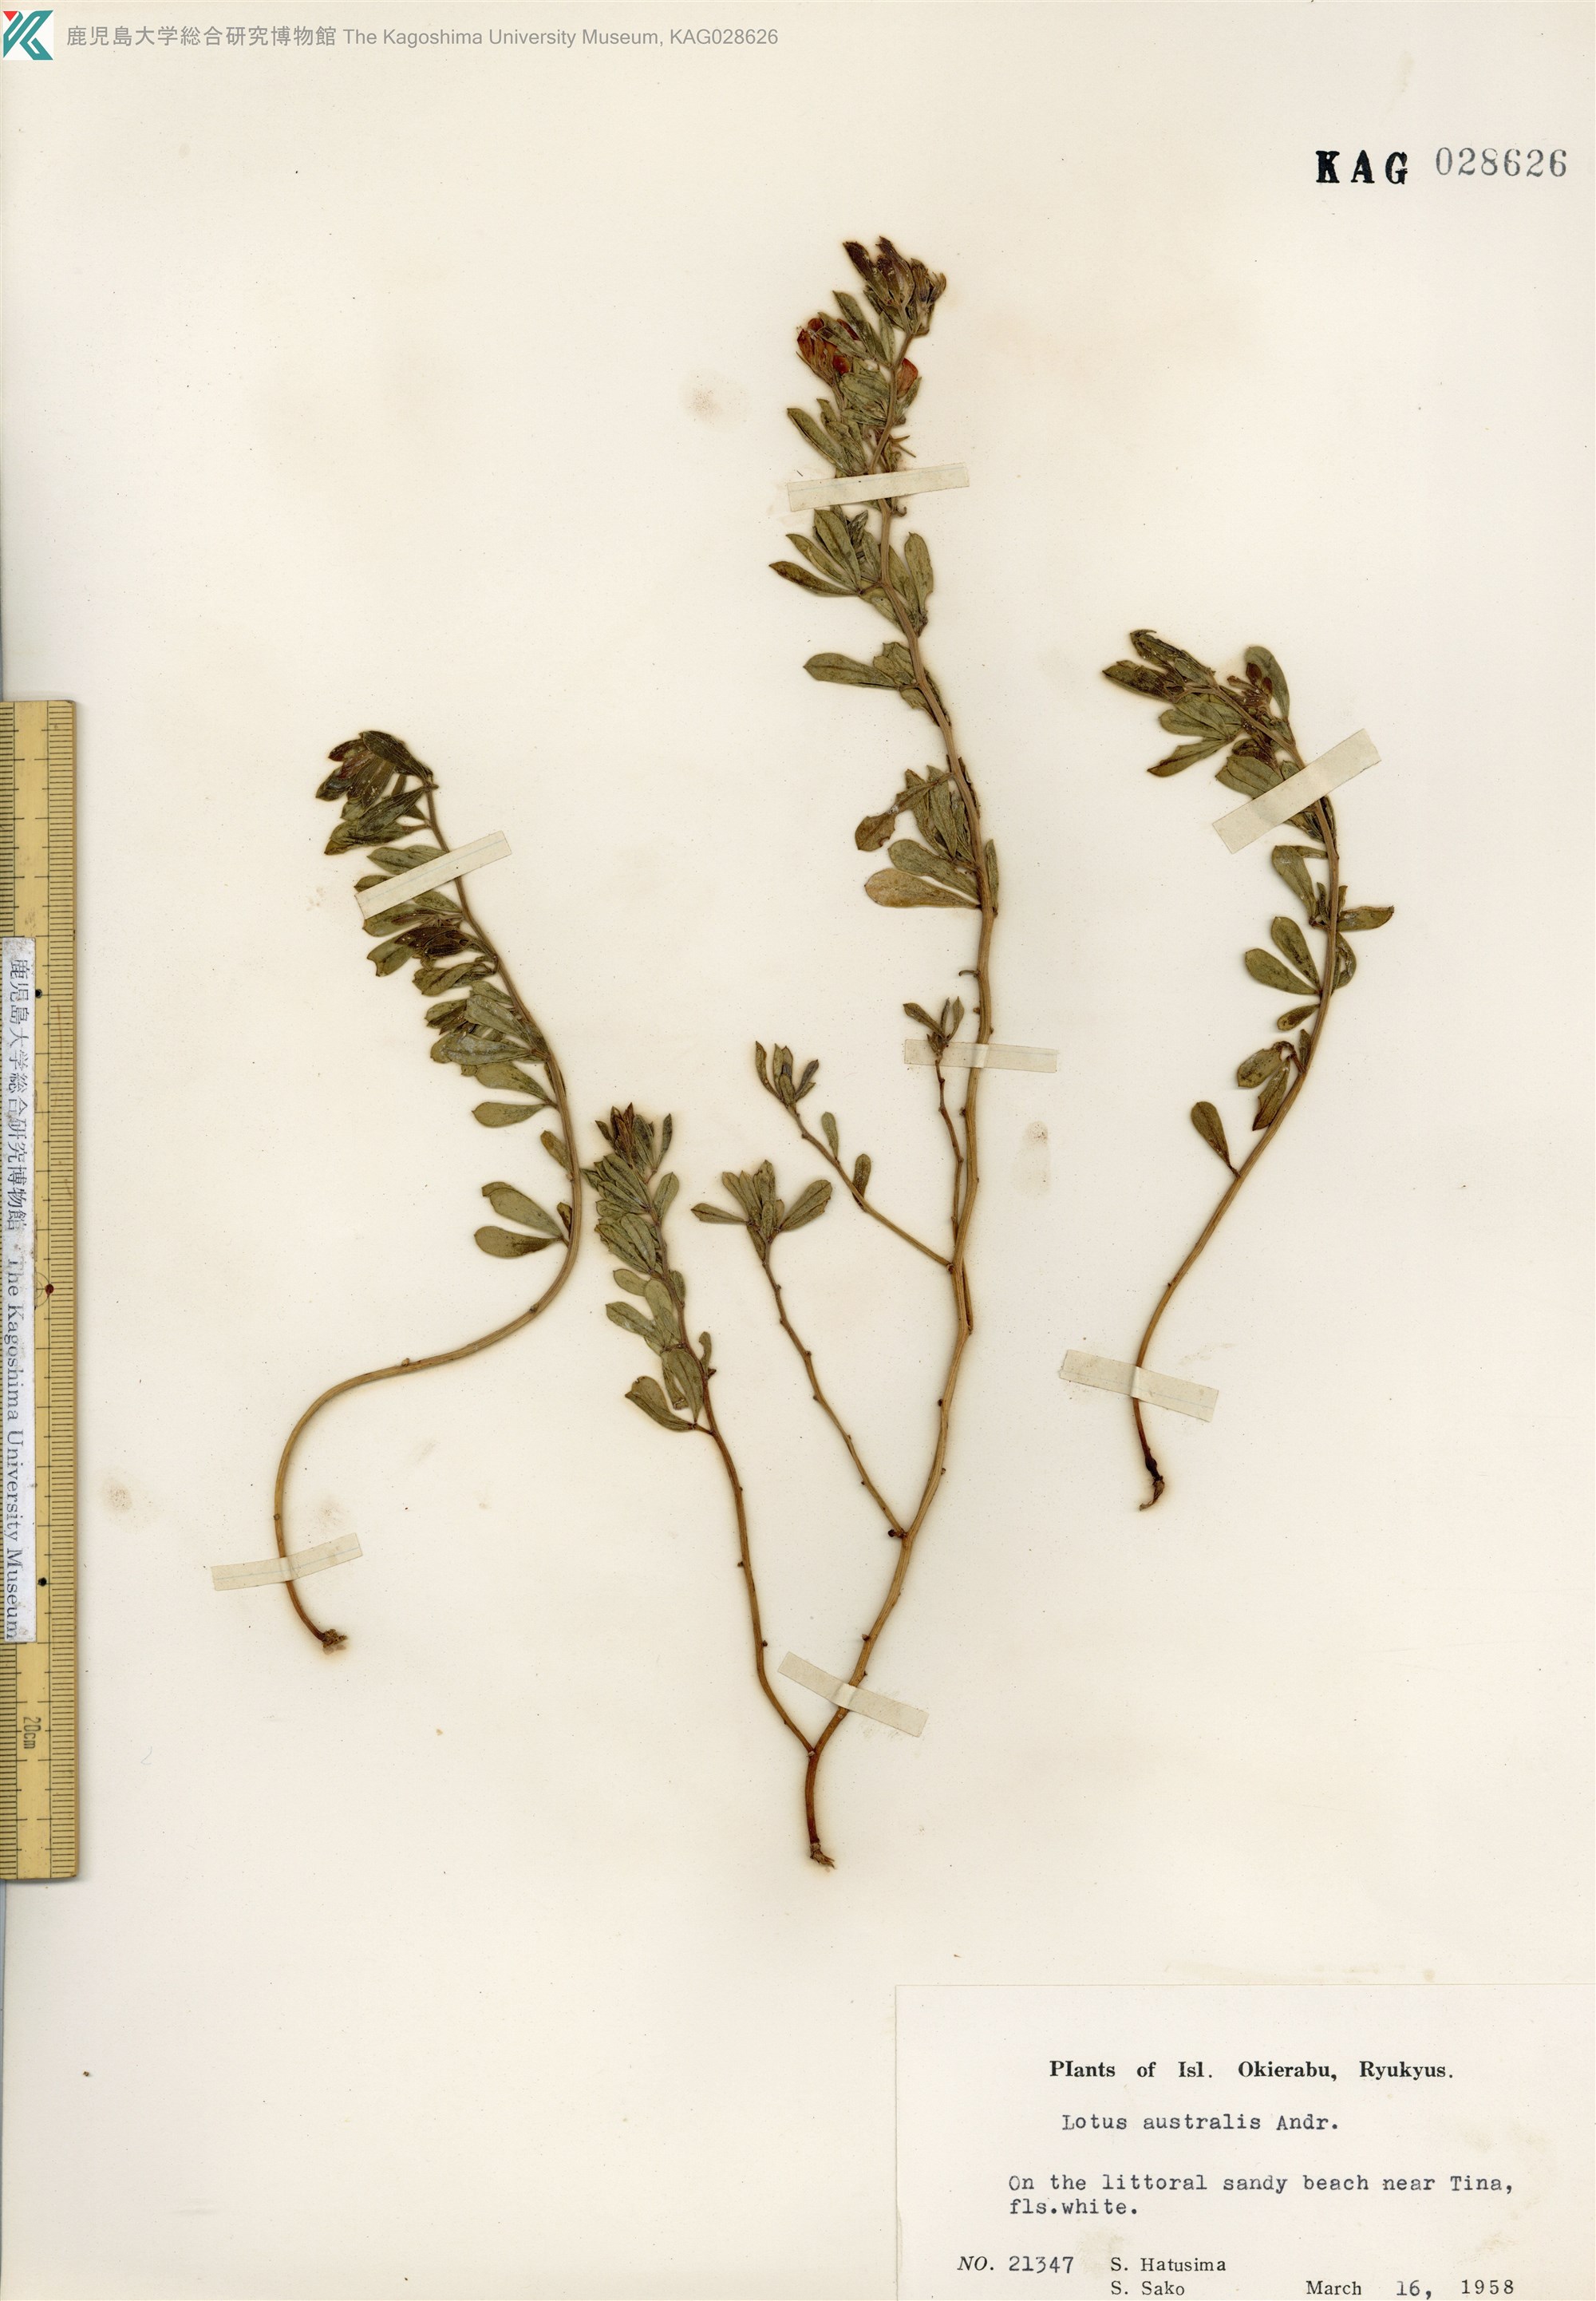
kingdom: Plantae
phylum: Tracheophyta
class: Magnoliopsida
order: Fabales
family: Fabaceae
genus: Lotus
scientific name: Lotus taitungensis
